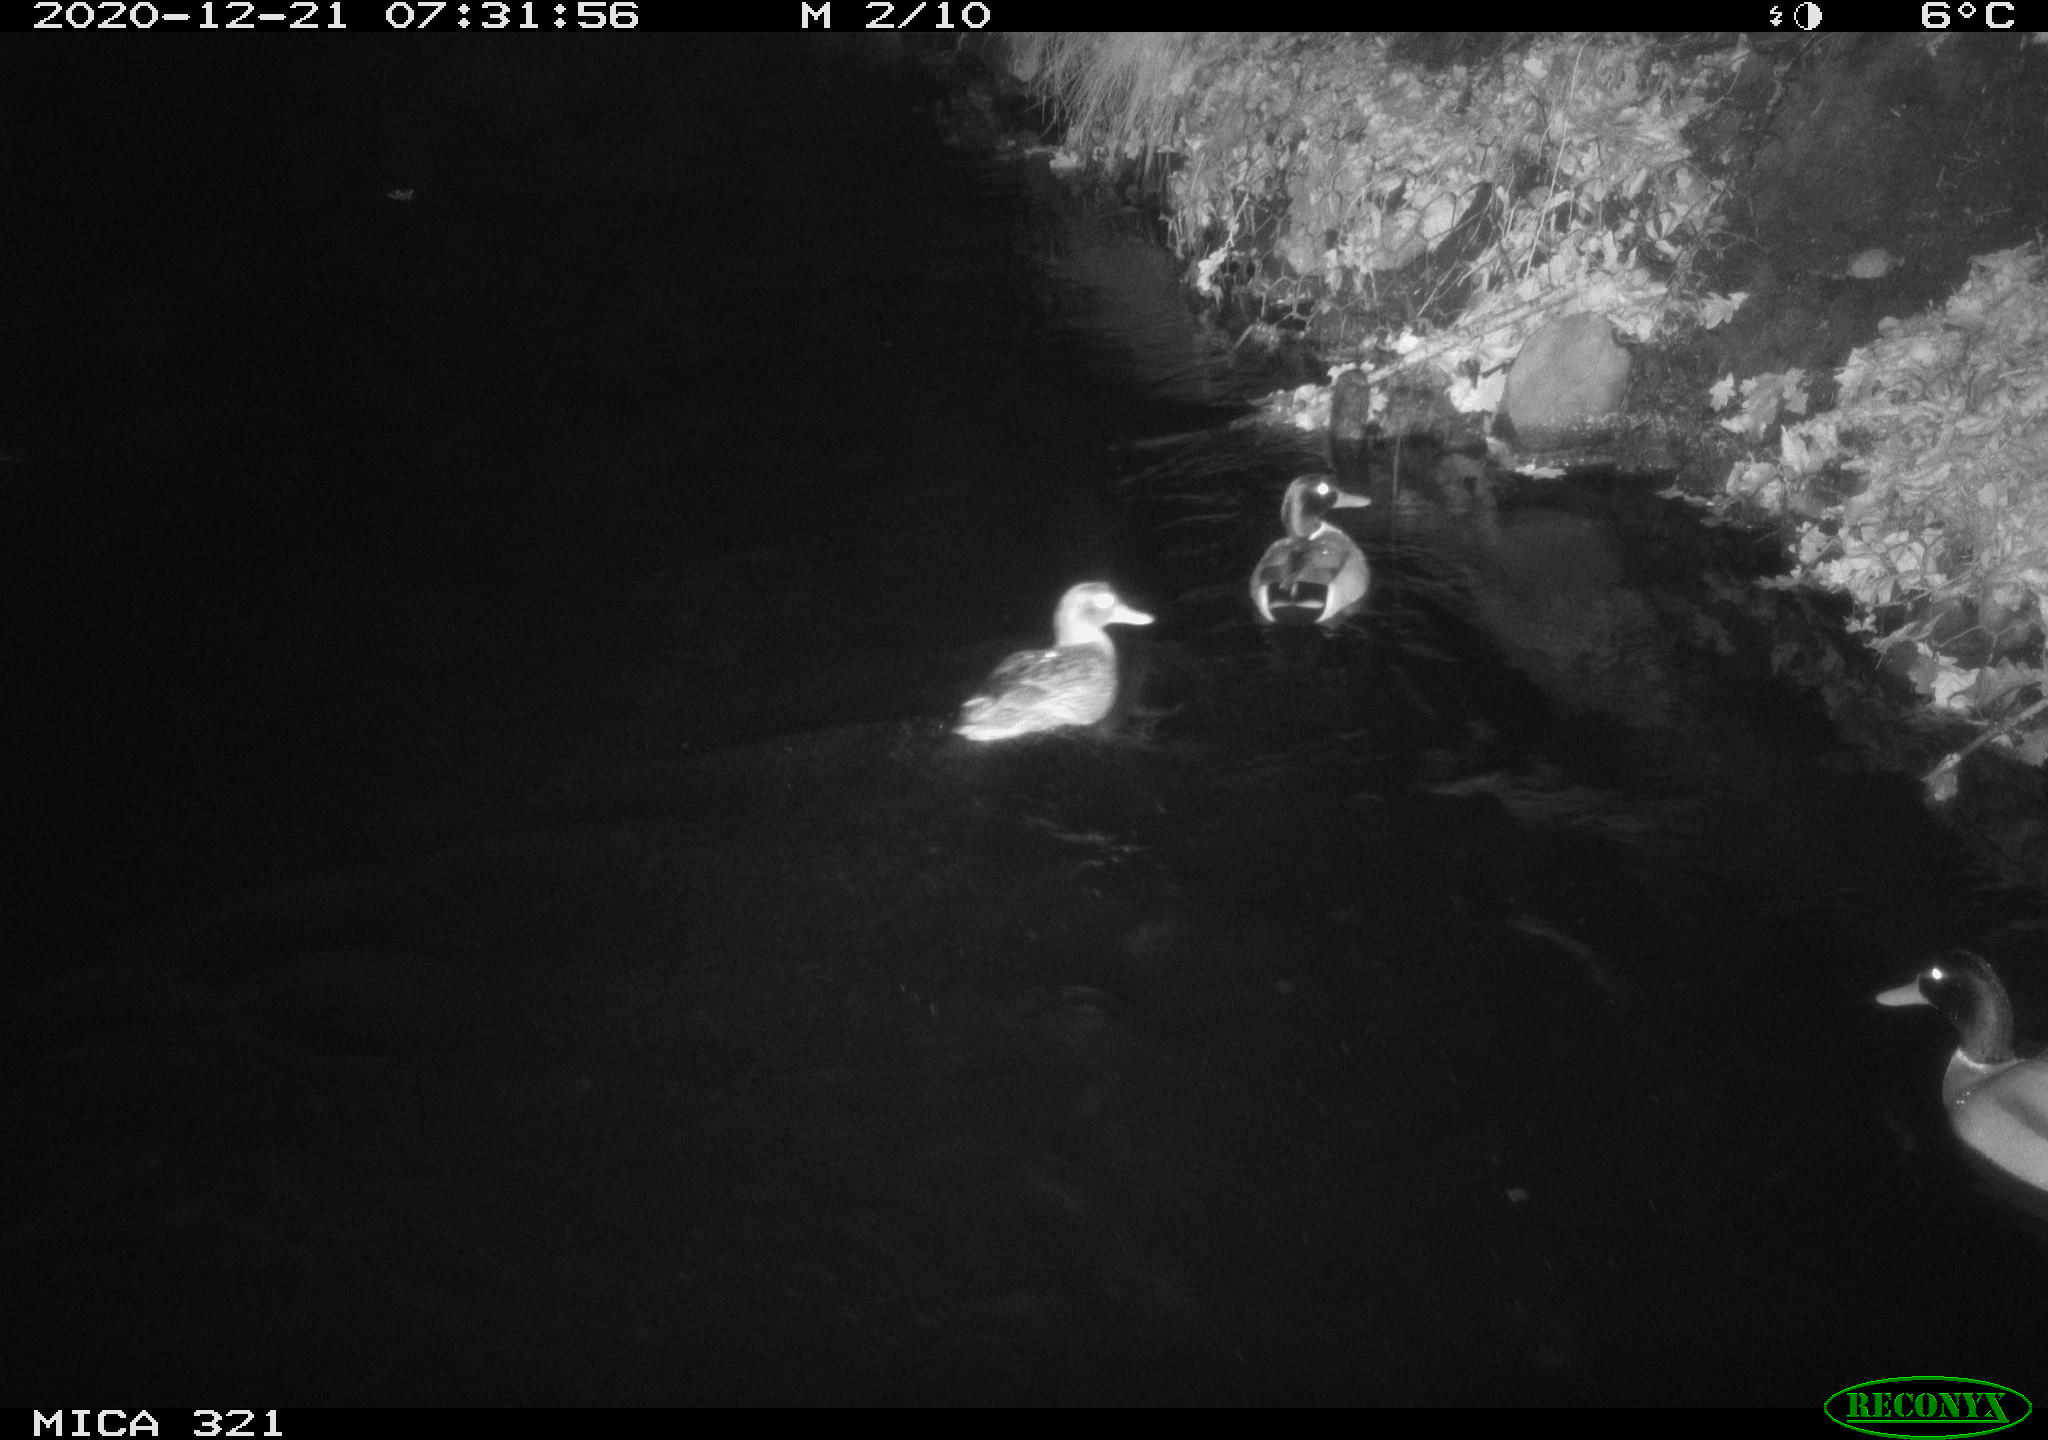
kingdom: Animalia
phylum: Chordata
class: Aves
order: Anseriformes
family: Anatidae
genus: Anas
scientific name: Anas platyrhynchos
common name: Mallard
